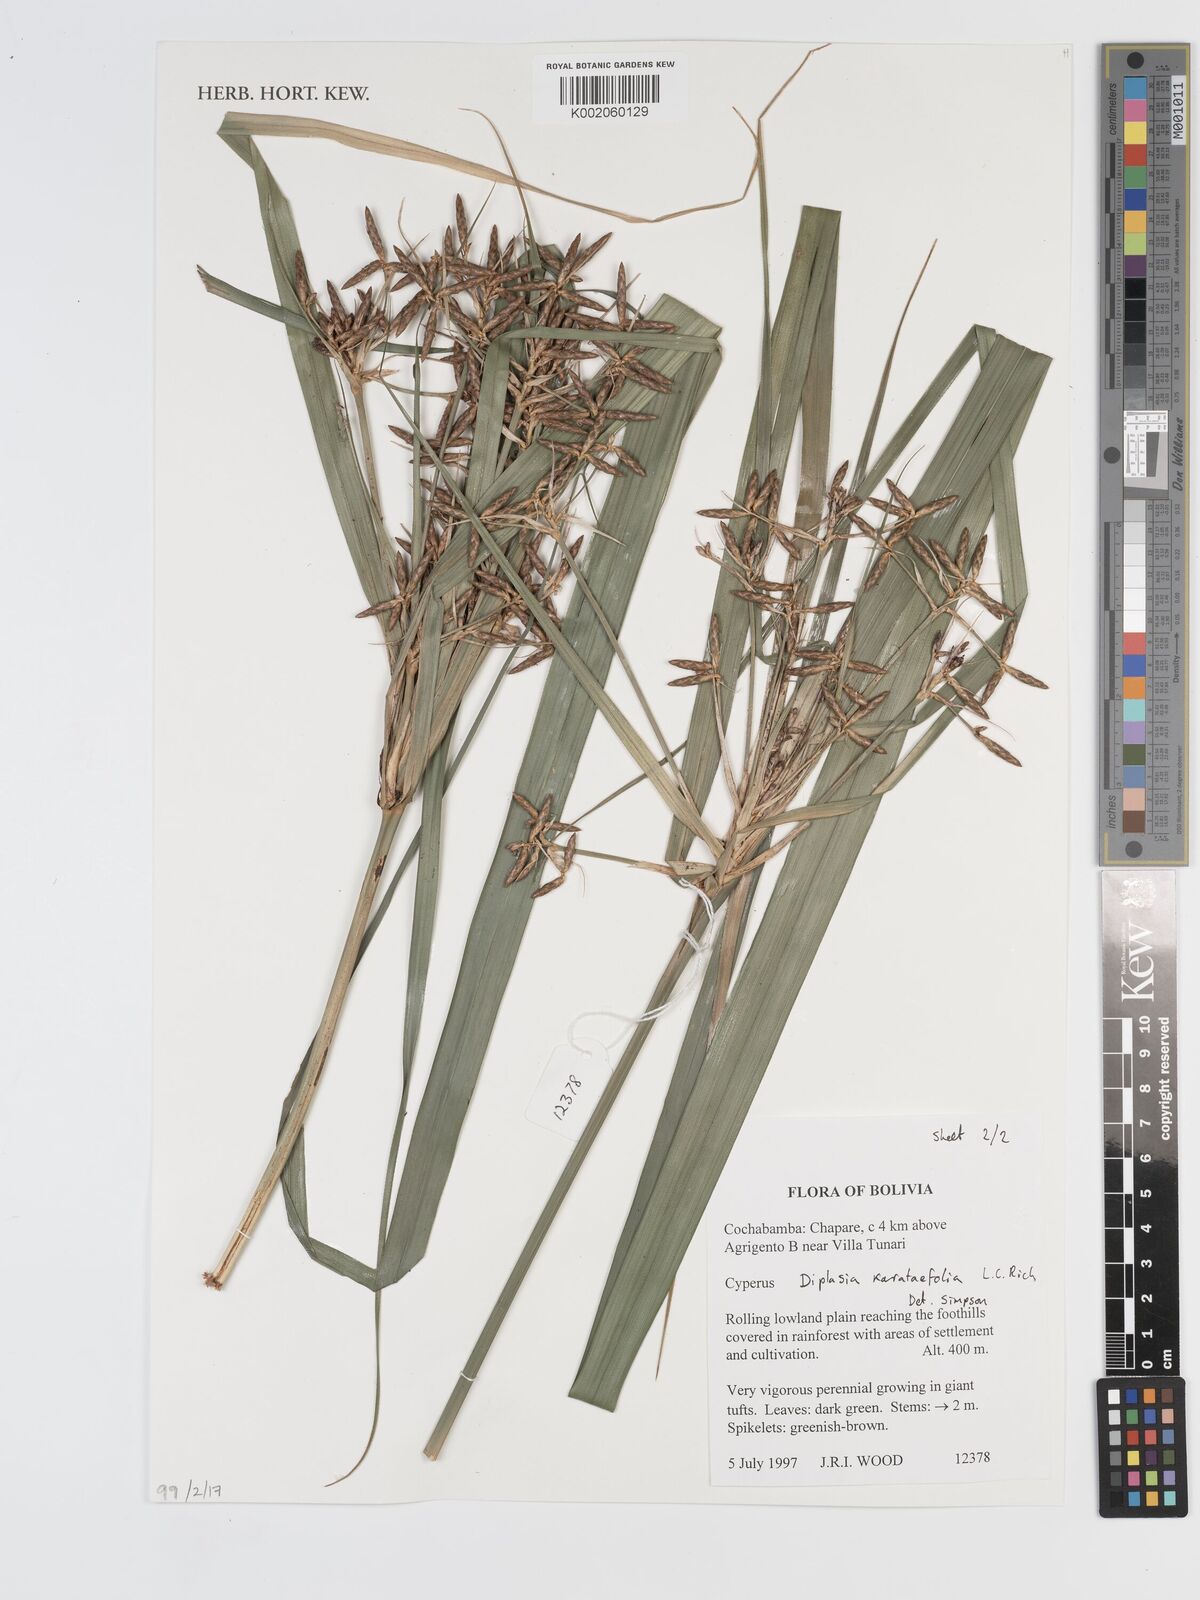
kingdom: Plantae
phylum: Tracheophyta
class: Liliopsida
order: Poales
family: Cyperaceae
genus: Diplasia
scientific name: Diplasia karatifolia
